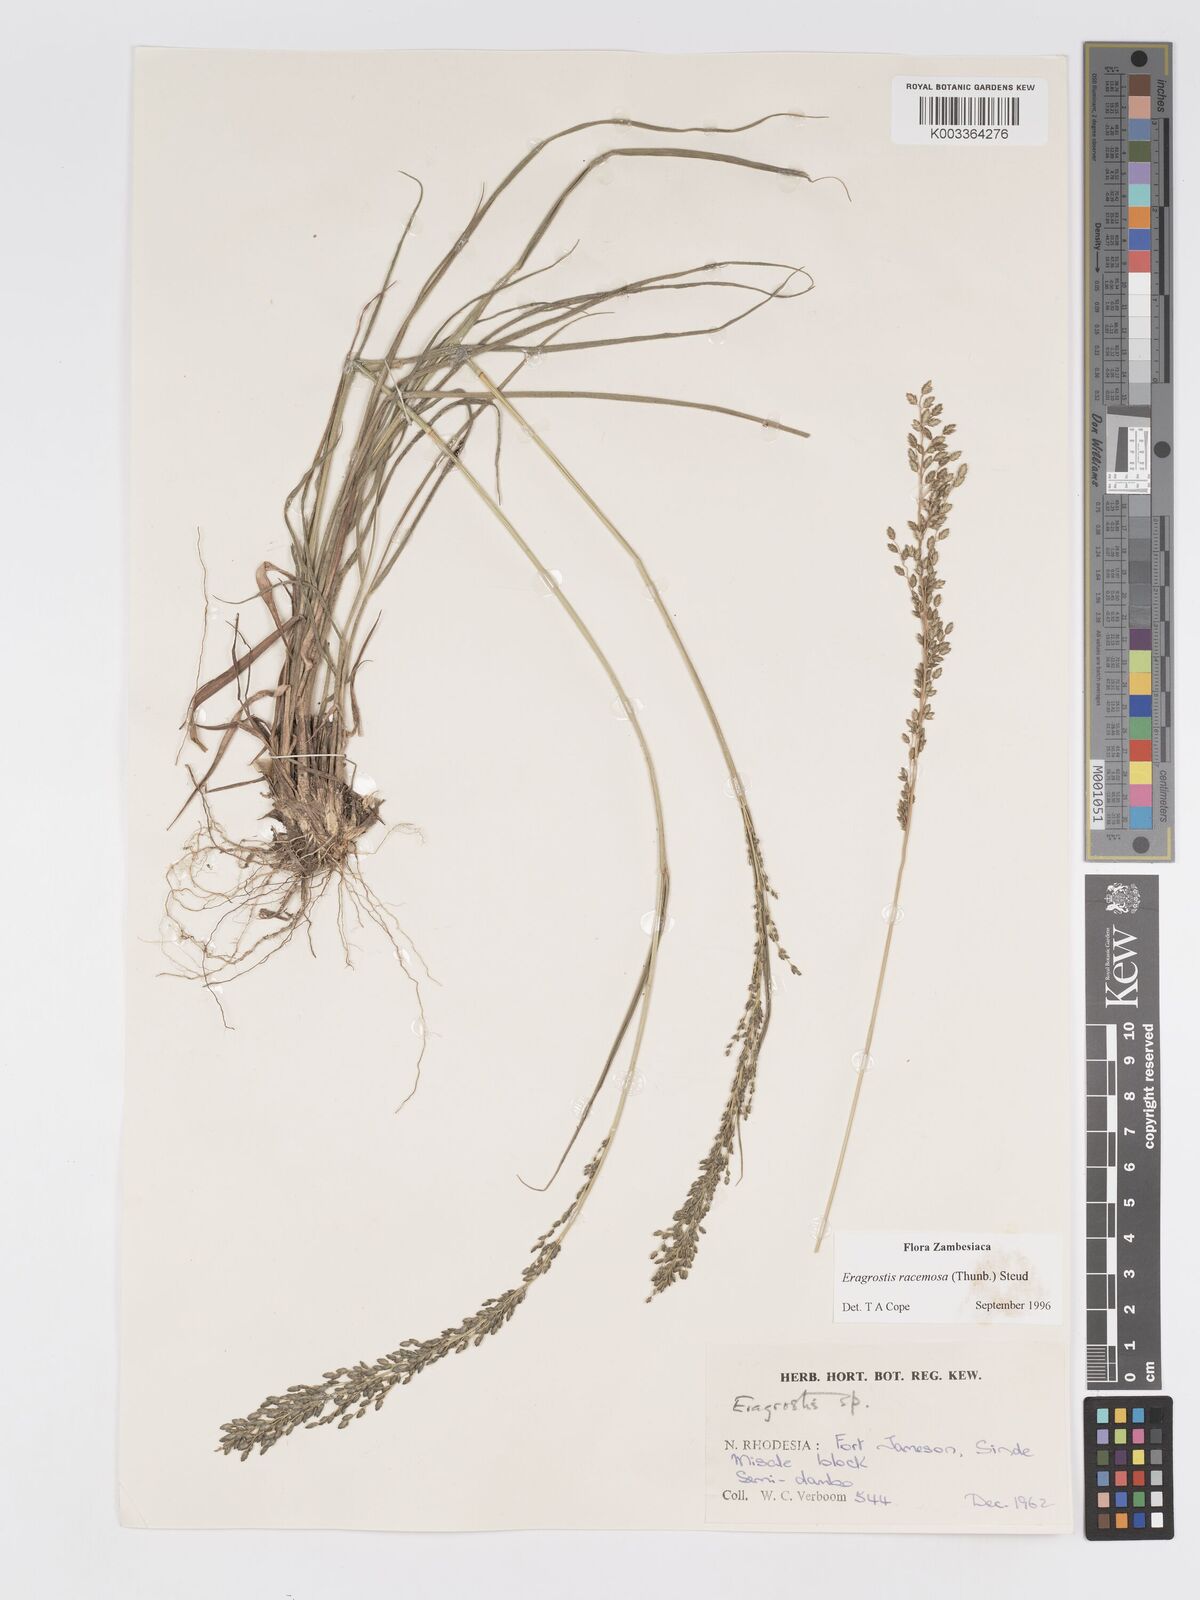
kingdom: Plantae
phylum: Tracheophyta
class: Liliopsida
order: Poales
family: Poaceae
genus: Eragrostis
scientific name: Eragrostis racemosa
